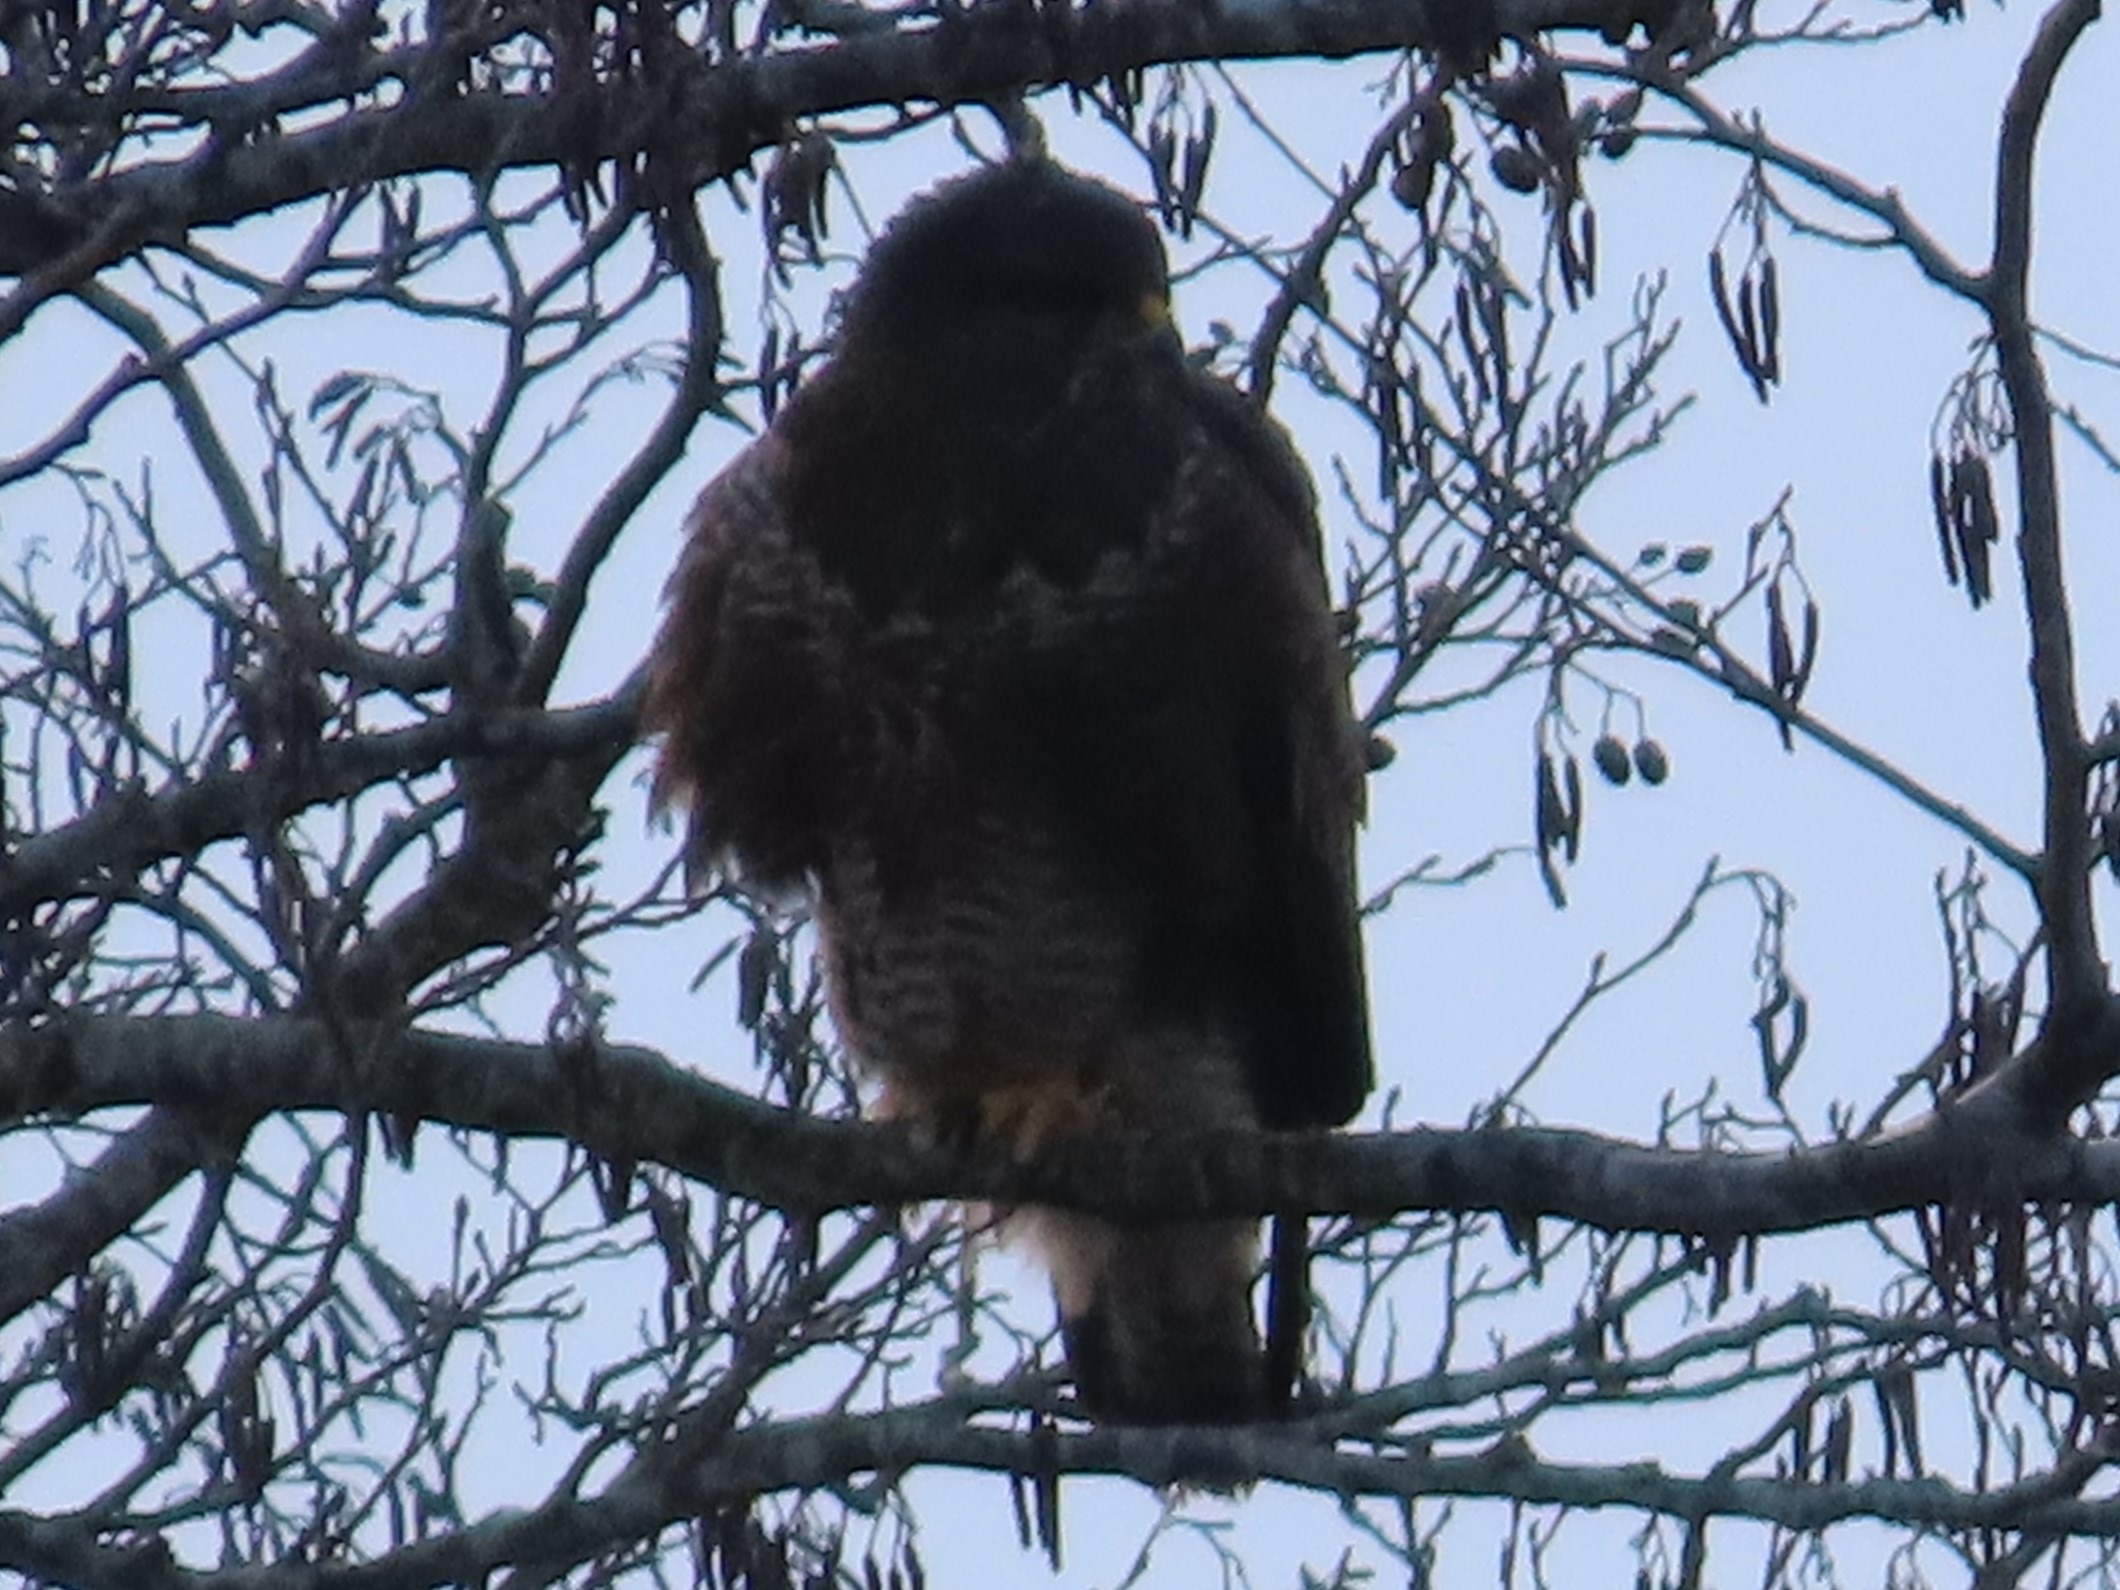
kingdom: Animalia
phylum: Chordata
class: Aves
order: Accipitriformes
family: Accipitridae
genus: Buteo
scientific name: Buteo buteo
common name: Musvåge
